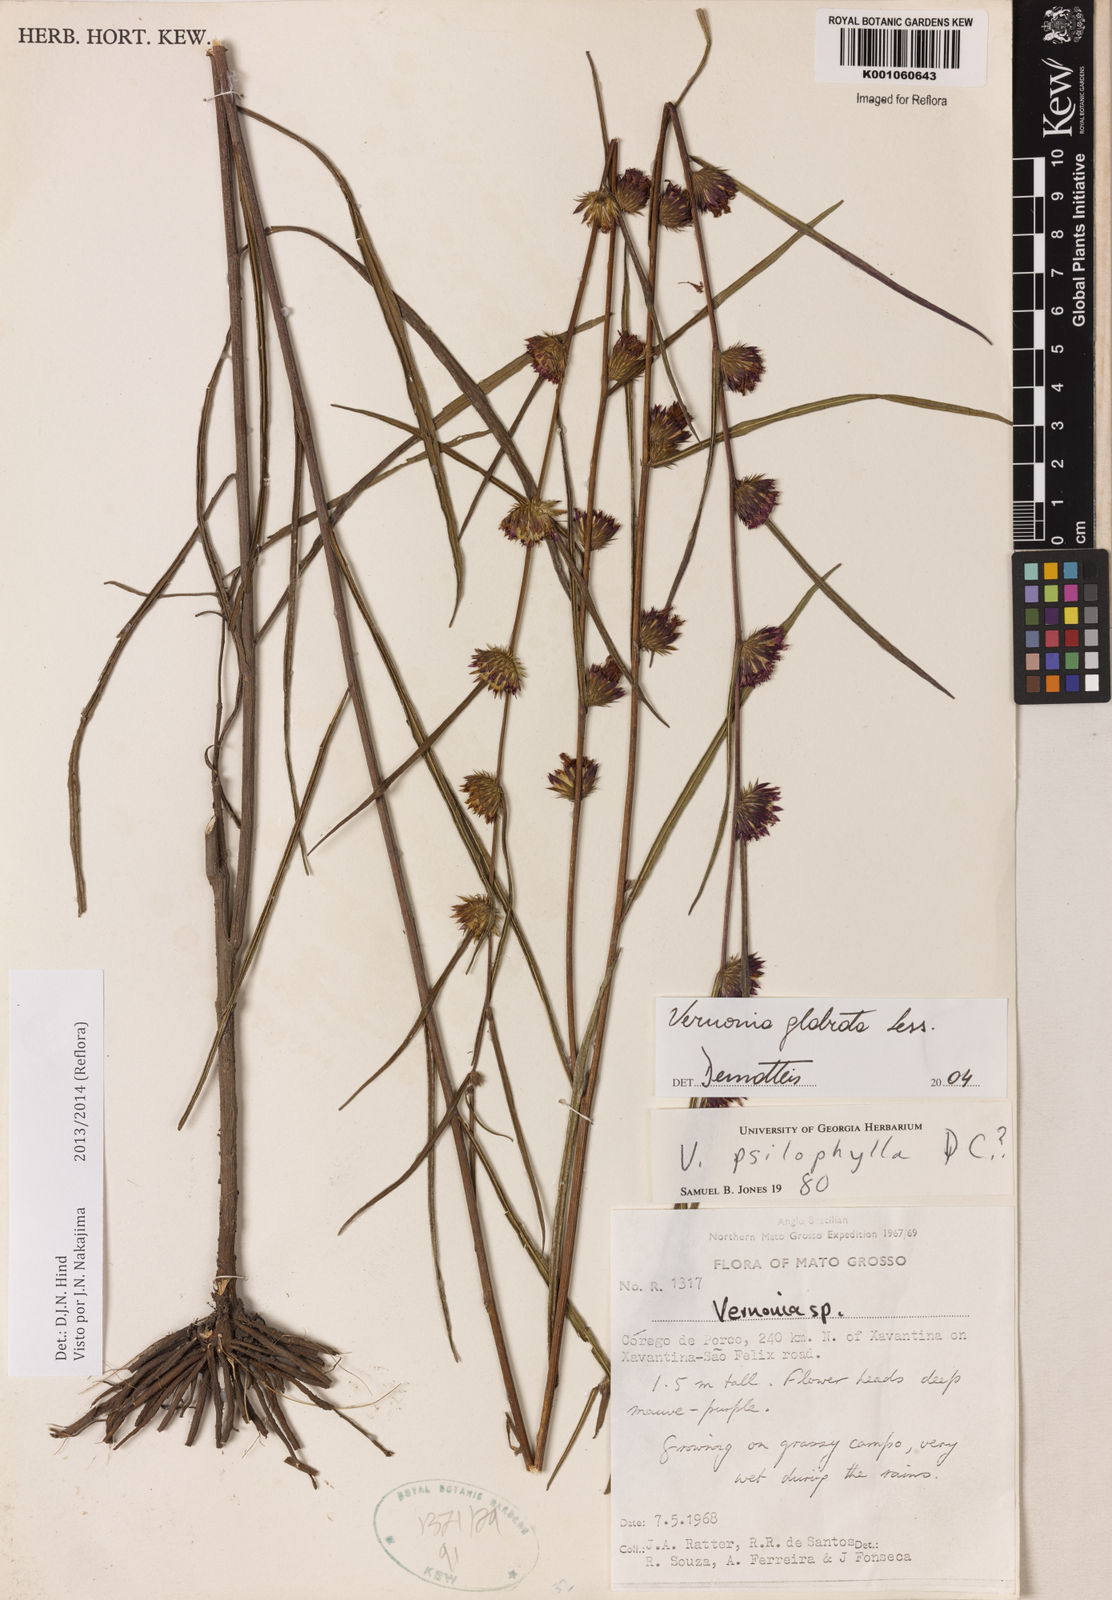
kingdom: Plantae
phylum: Tracheophyta
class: Magnoliopsida
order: Asterales
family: Asteraceae
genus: Lessingianthus
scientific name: Lessingianthus glabratus
